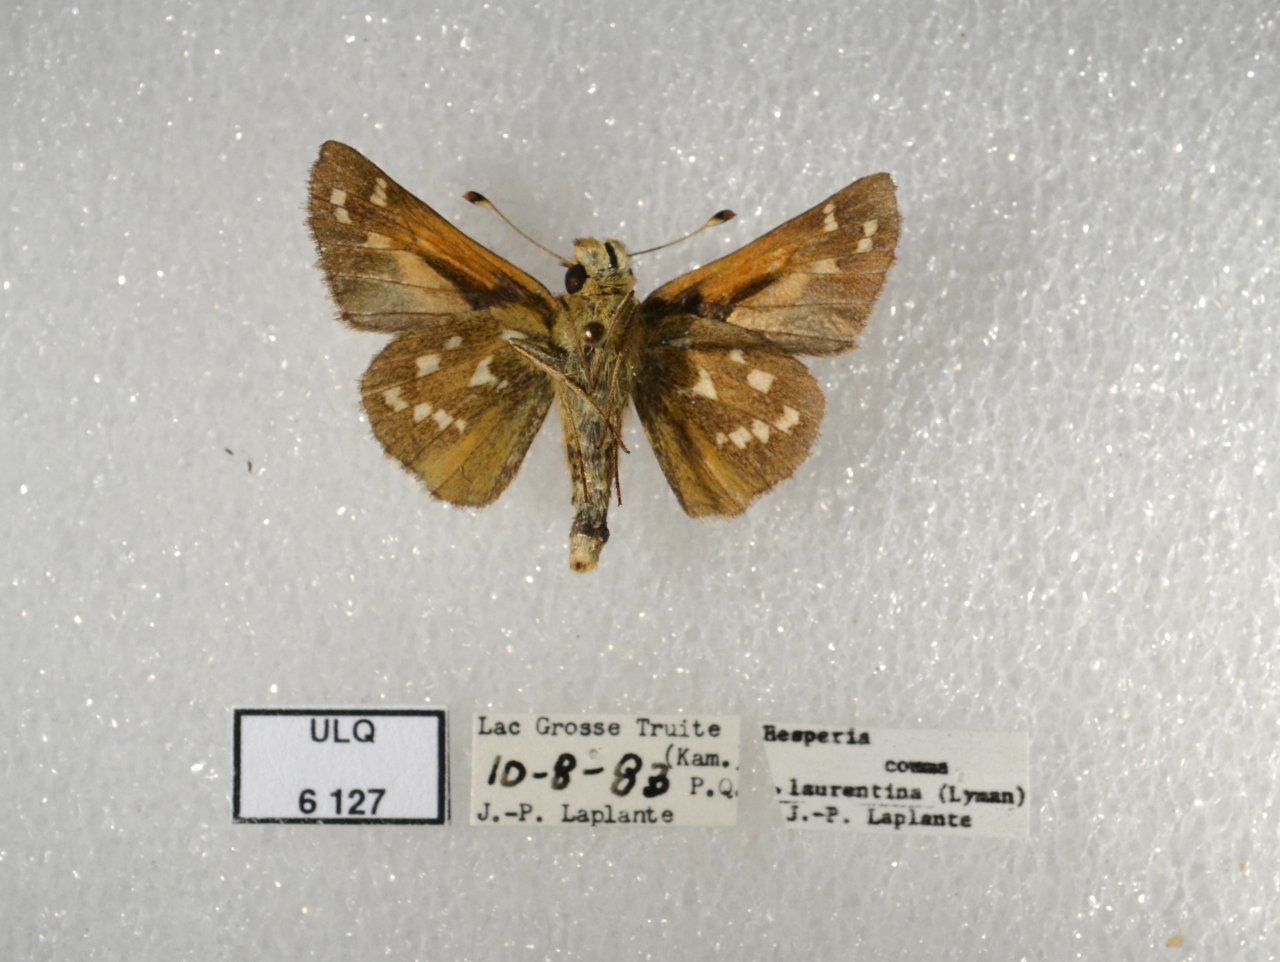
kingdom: Animalia
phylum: Arthropoda
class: Insecta
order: Lepidoptera
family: Hesperiidae
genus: Hesperia
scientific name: Hesperia comma
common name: Common Branded Skipper
